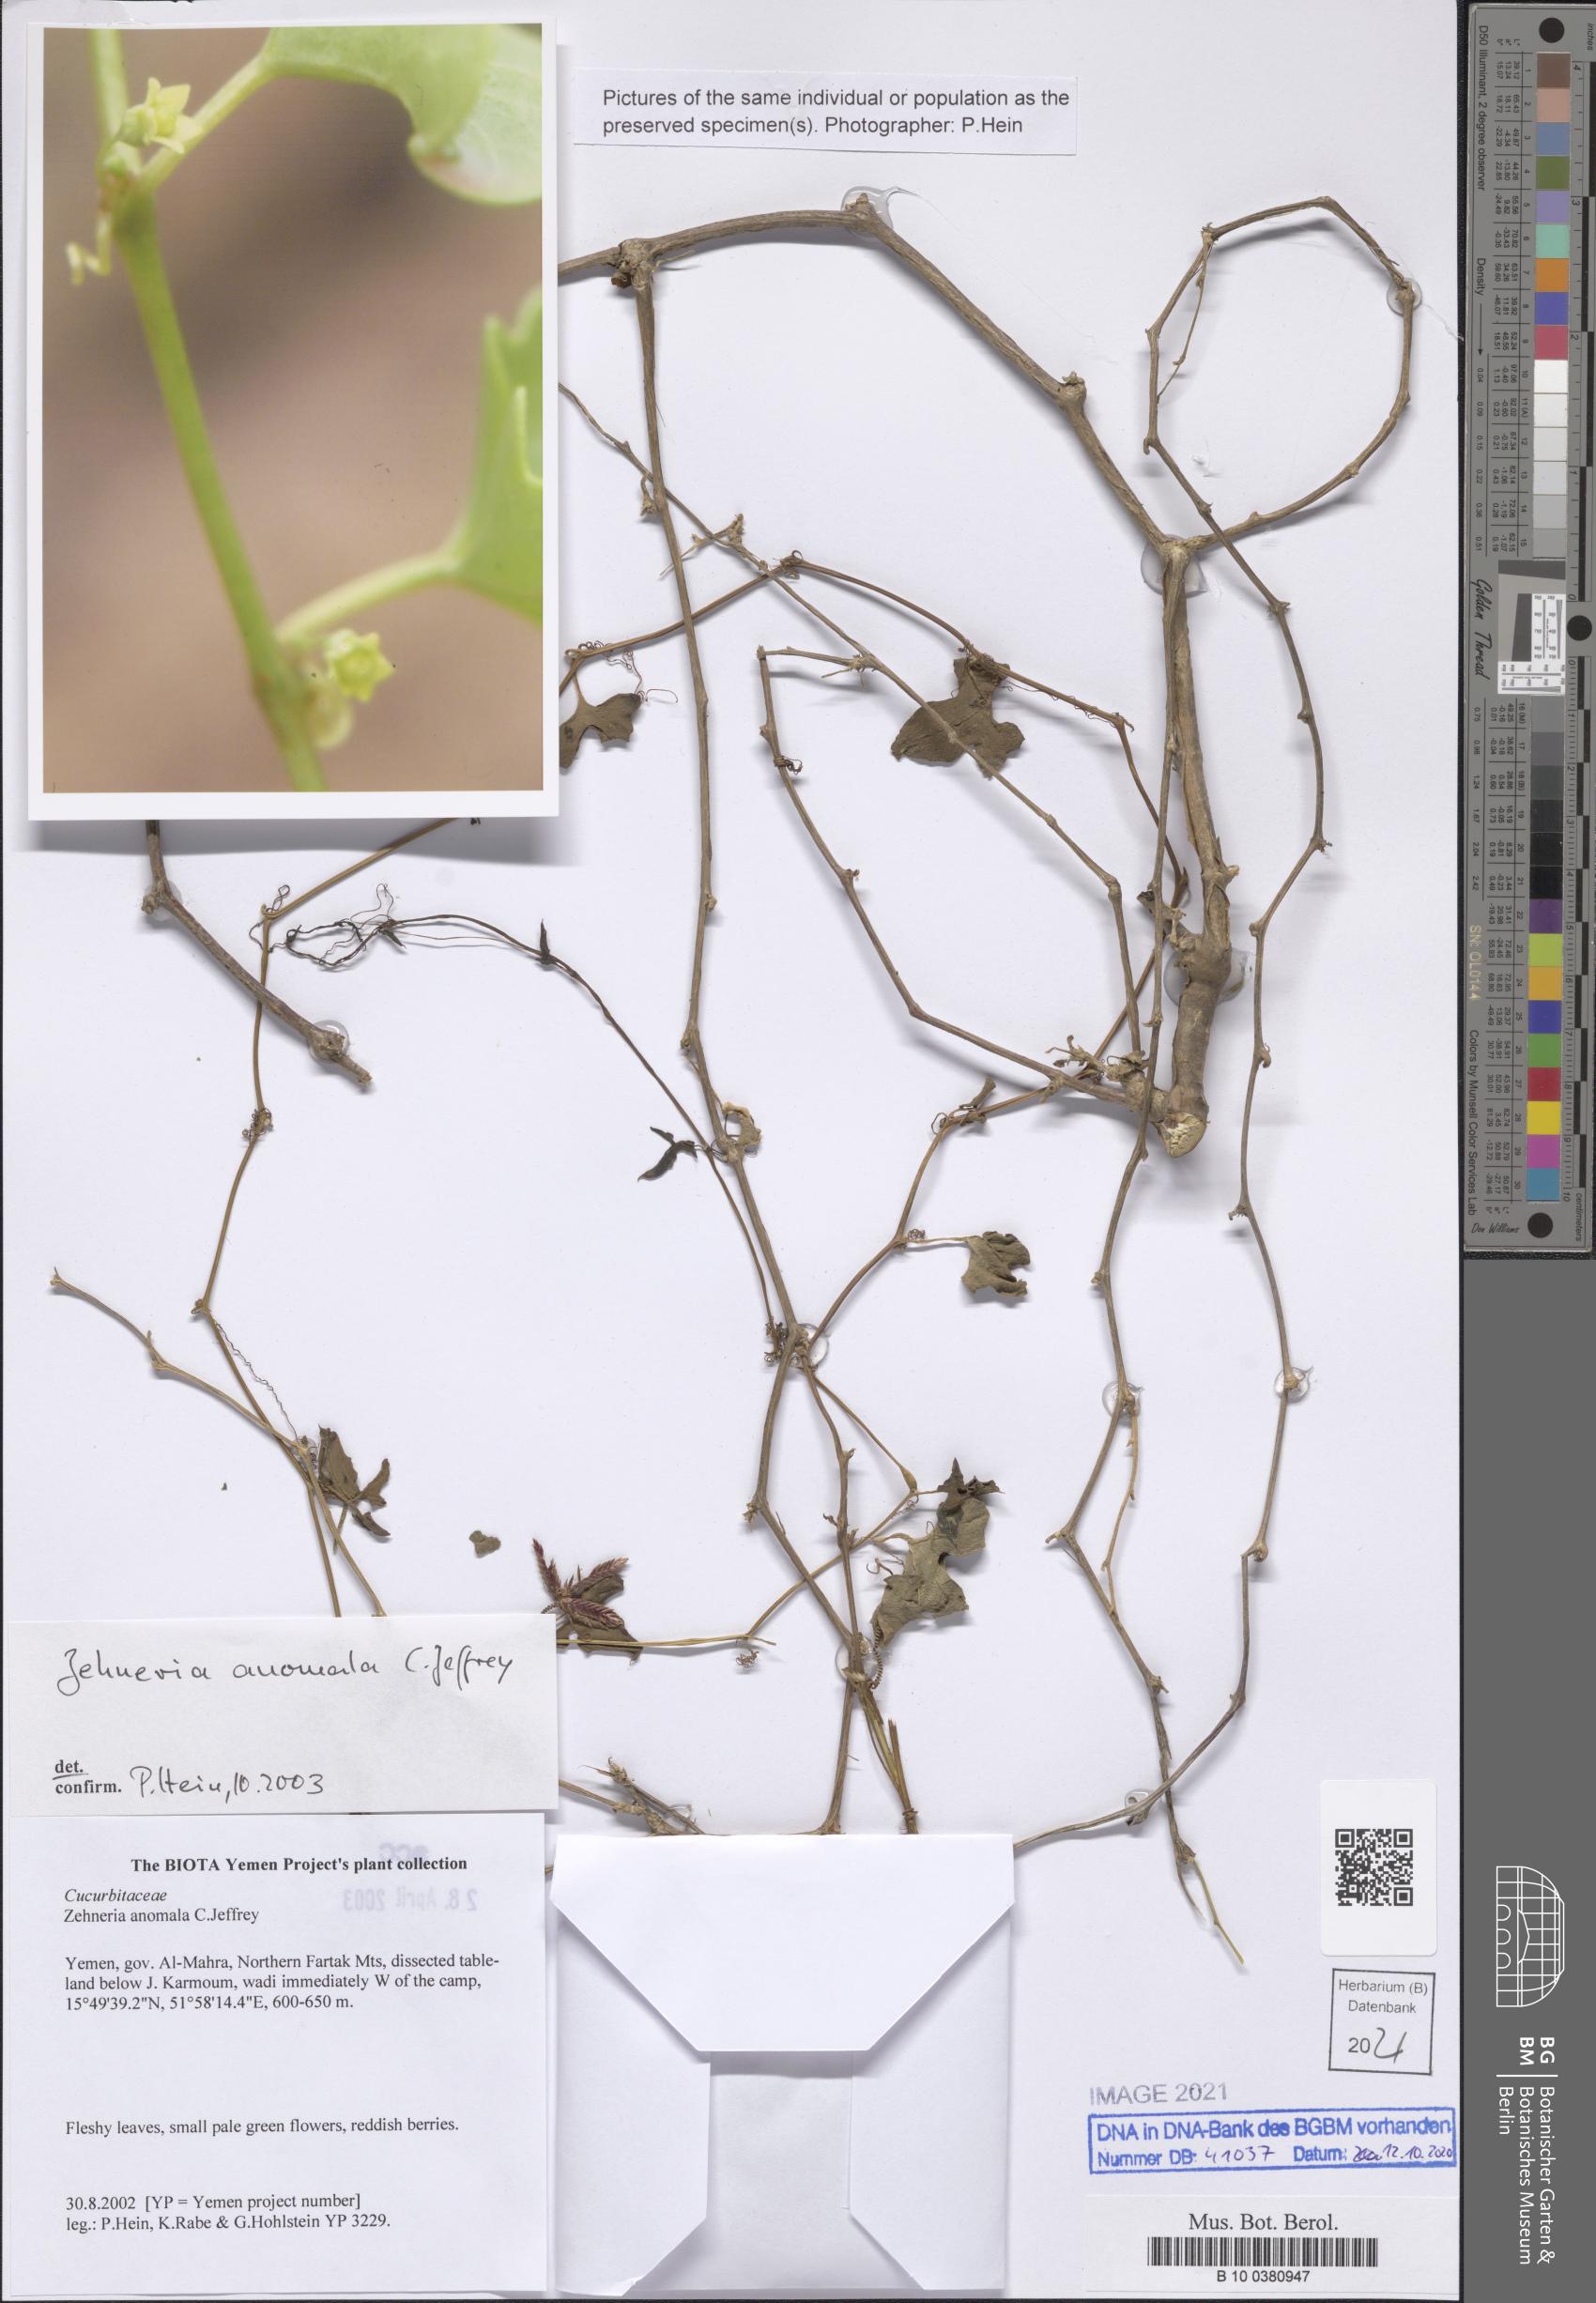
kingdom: Plantae
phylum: Tracheophyta
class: Magnoliopsida
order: Cucurbitales
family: Cucurbitaceae
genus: Zehneria
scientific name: Zehneria anomala
